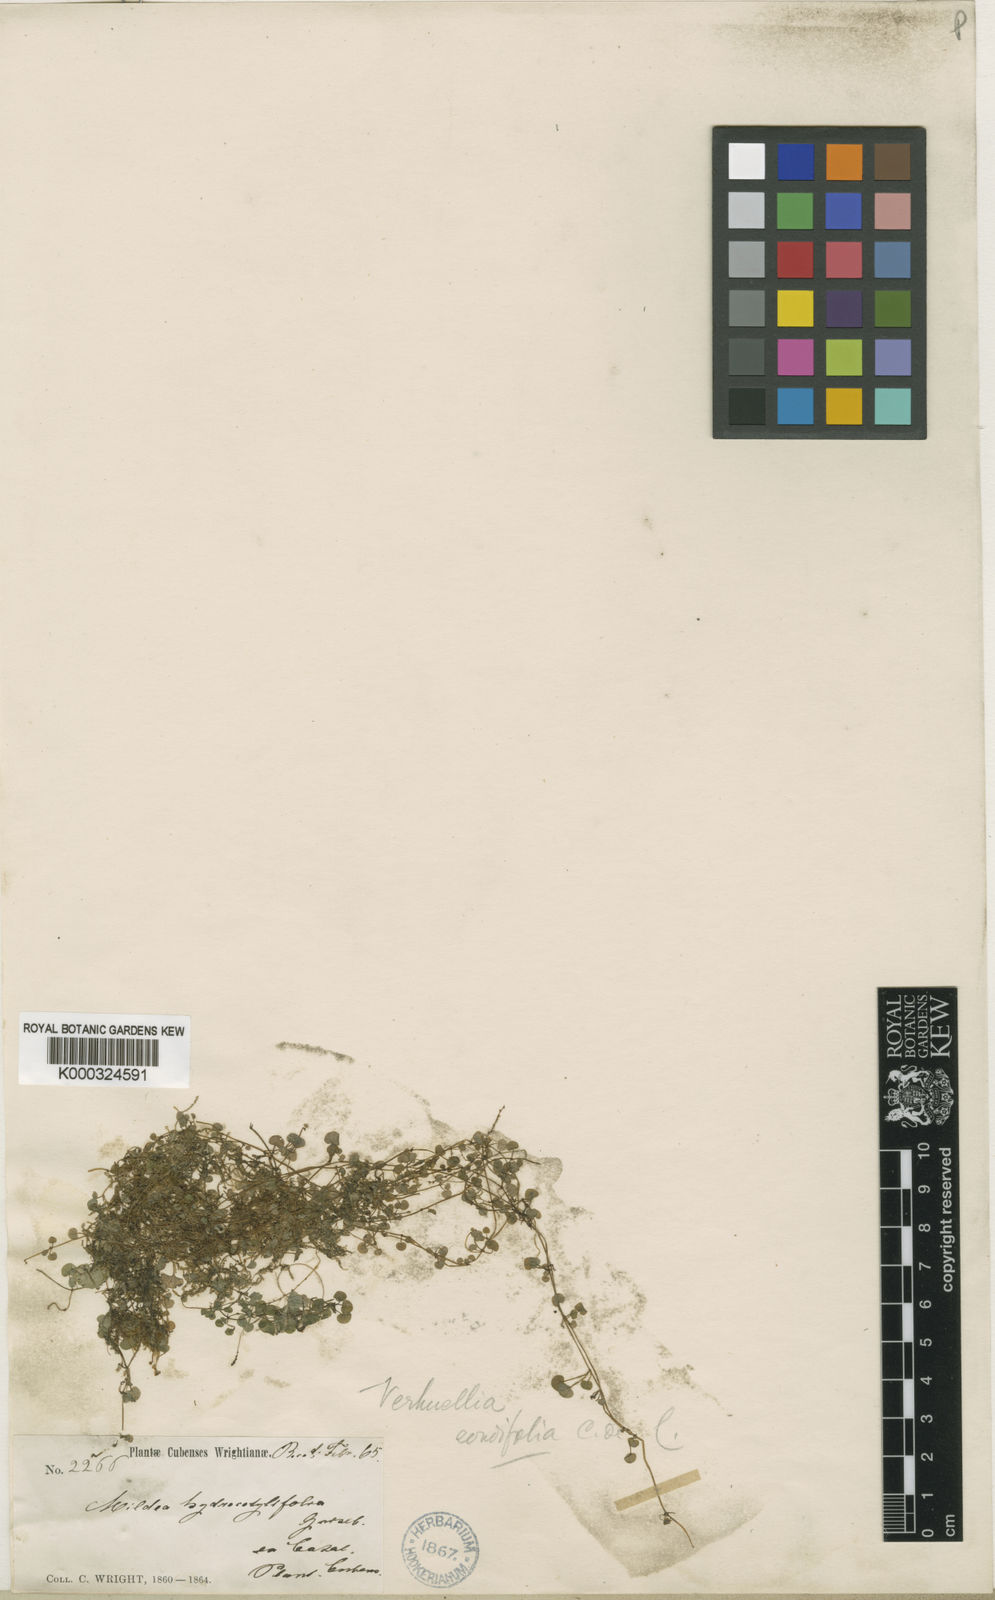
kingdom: Plantae
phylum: Tracheophyta
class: Magnoliopsida
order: Piperales
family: Piperaceae
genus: Verhuellia
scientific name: Verhuellia hydrocotylifolia
